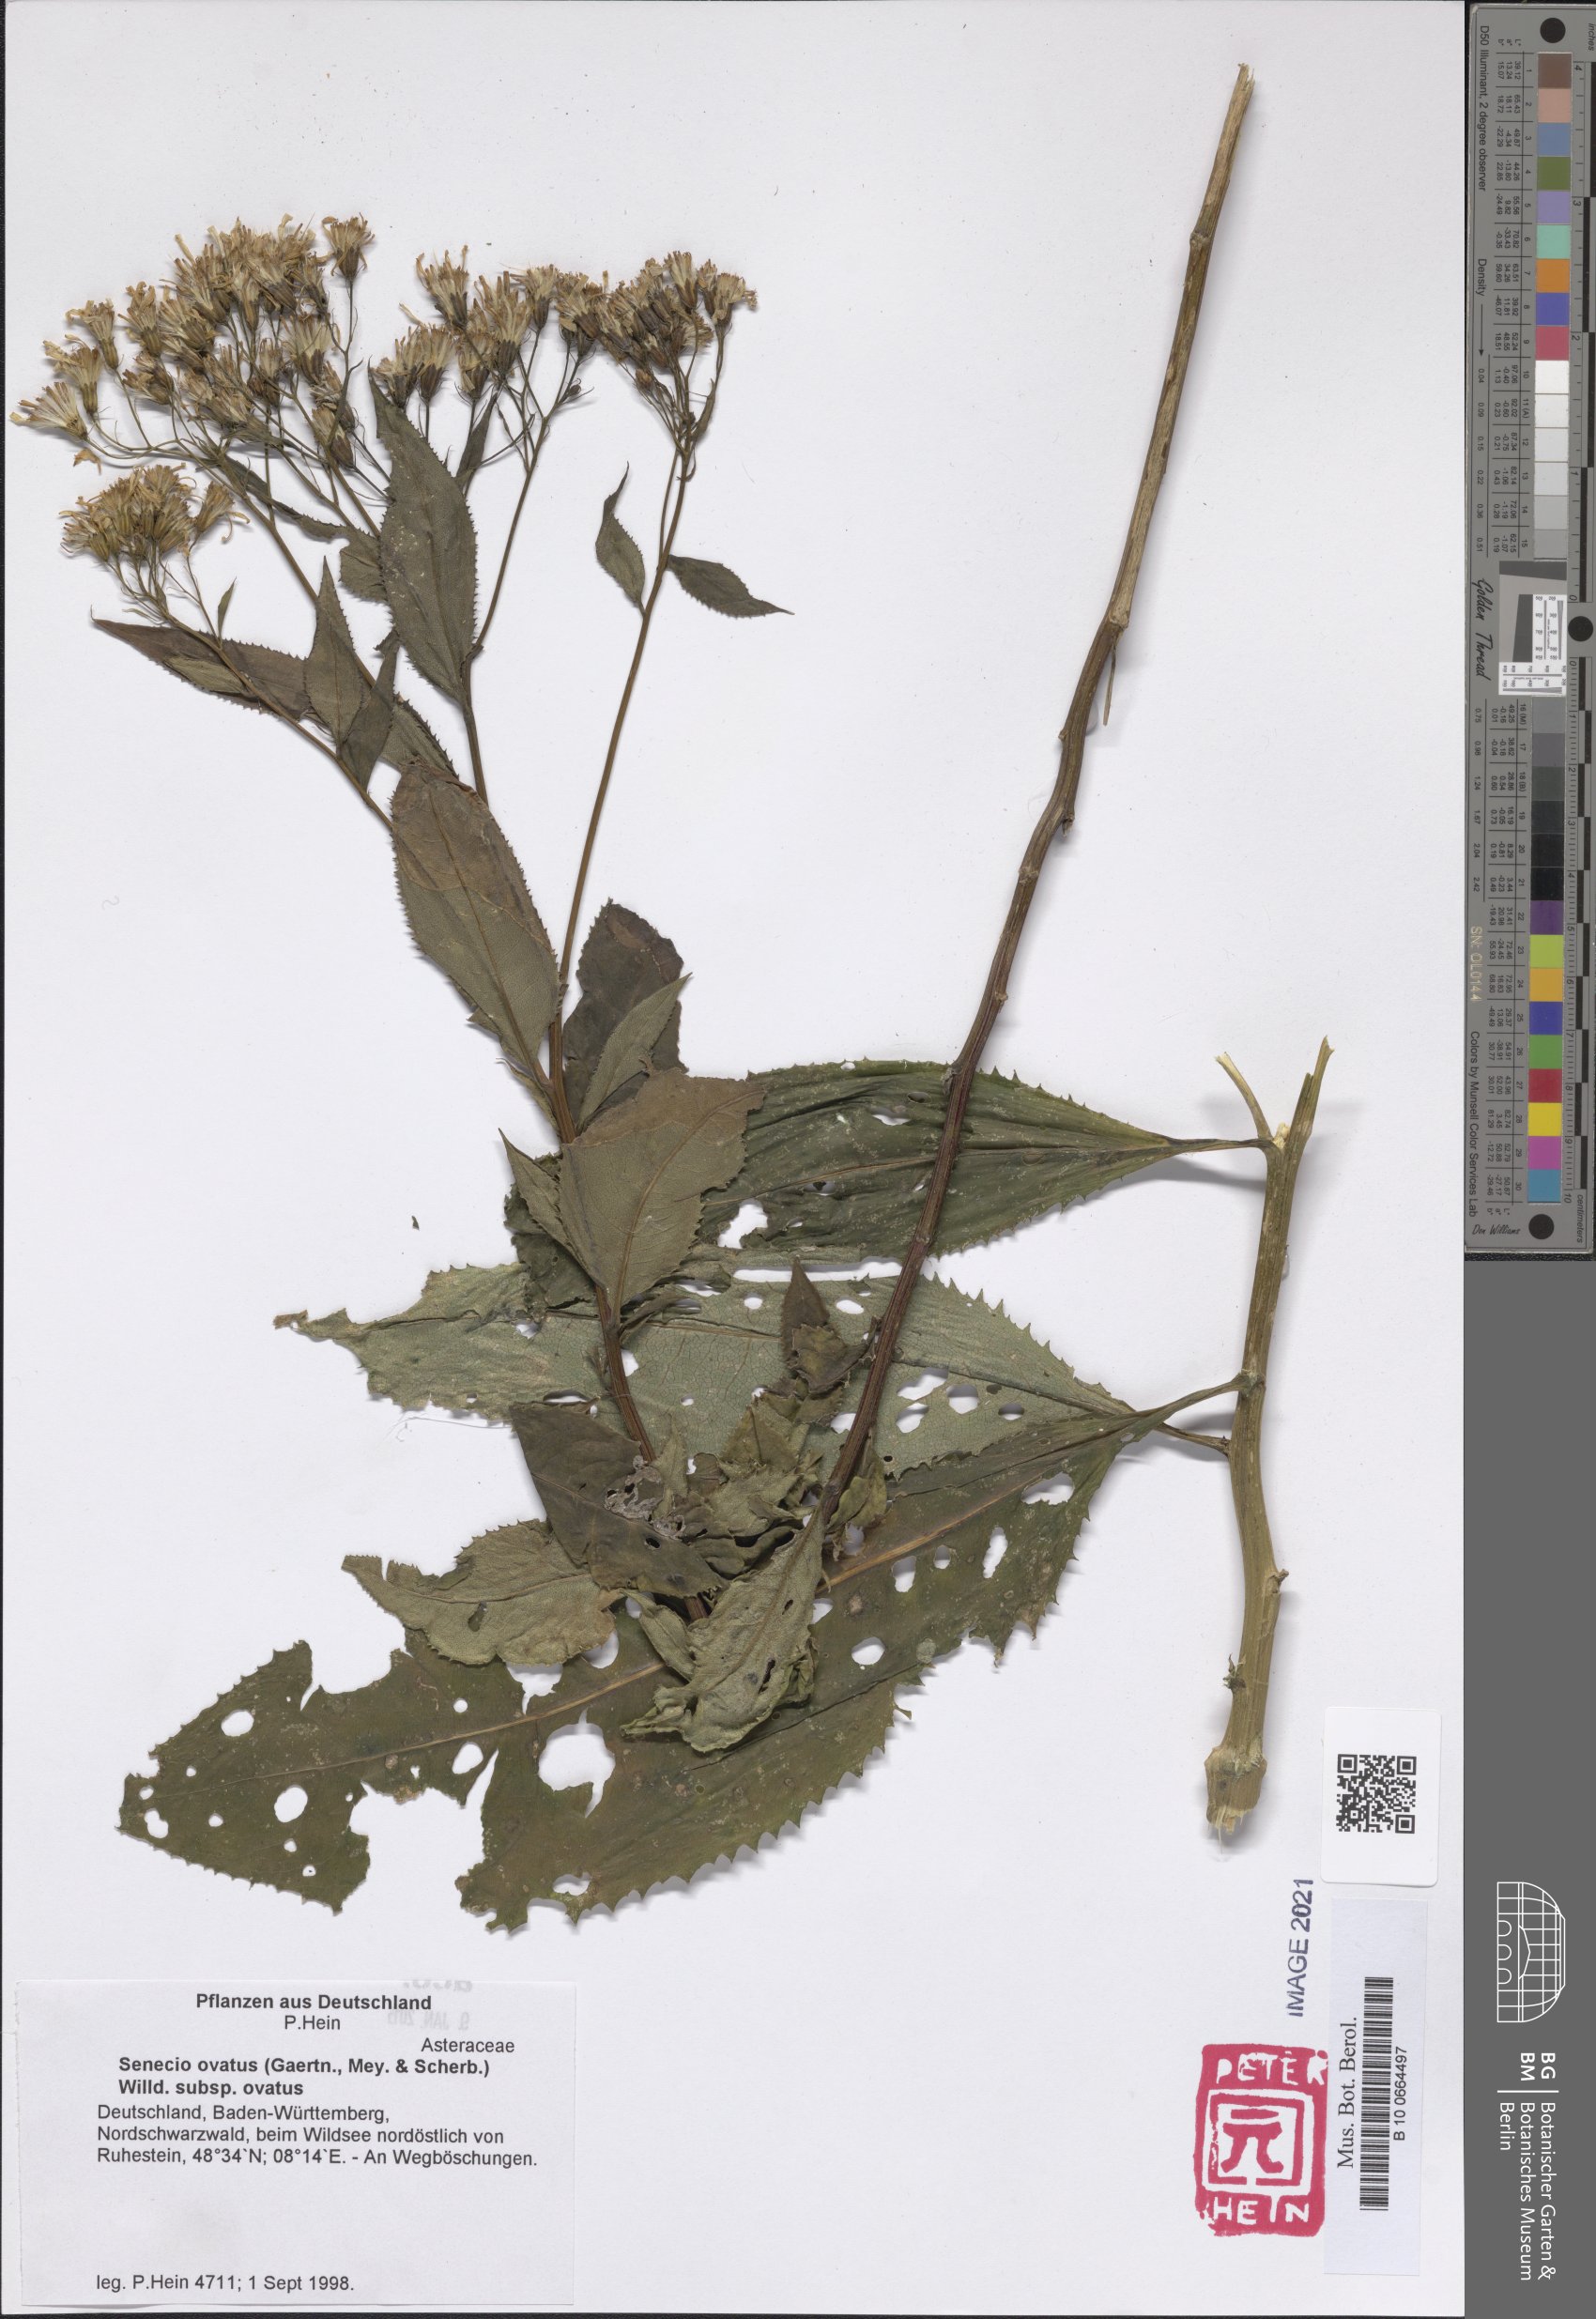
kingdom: Plantae
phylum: Tracheophyta
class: Magnoliopsida
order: Asterales
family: Asteraceae
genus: Senecio
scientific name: Senecio ovatus
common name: Wood ragwort
